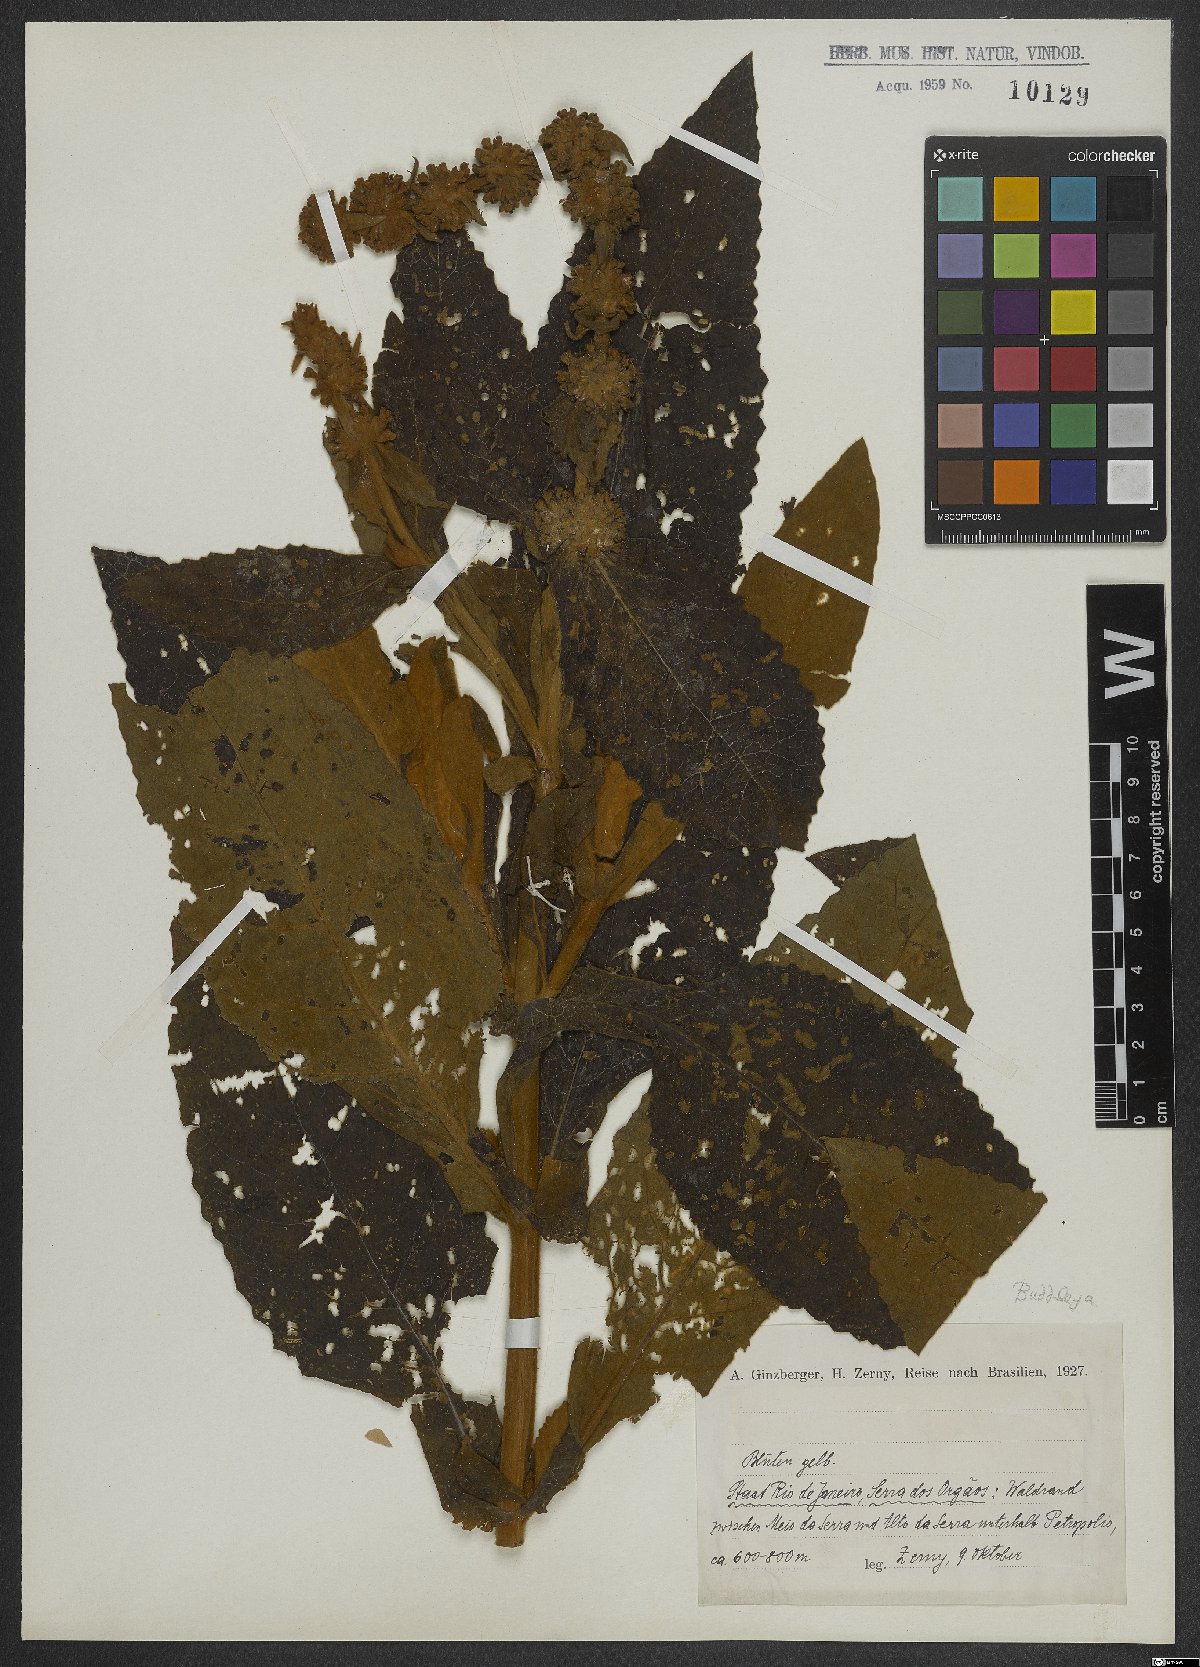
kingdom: Plantae
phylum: Tracheophyta
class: Magnoliopsida
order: Lamiales
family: Scrophulariaceae
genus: Buddleja
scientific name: Buddleja
